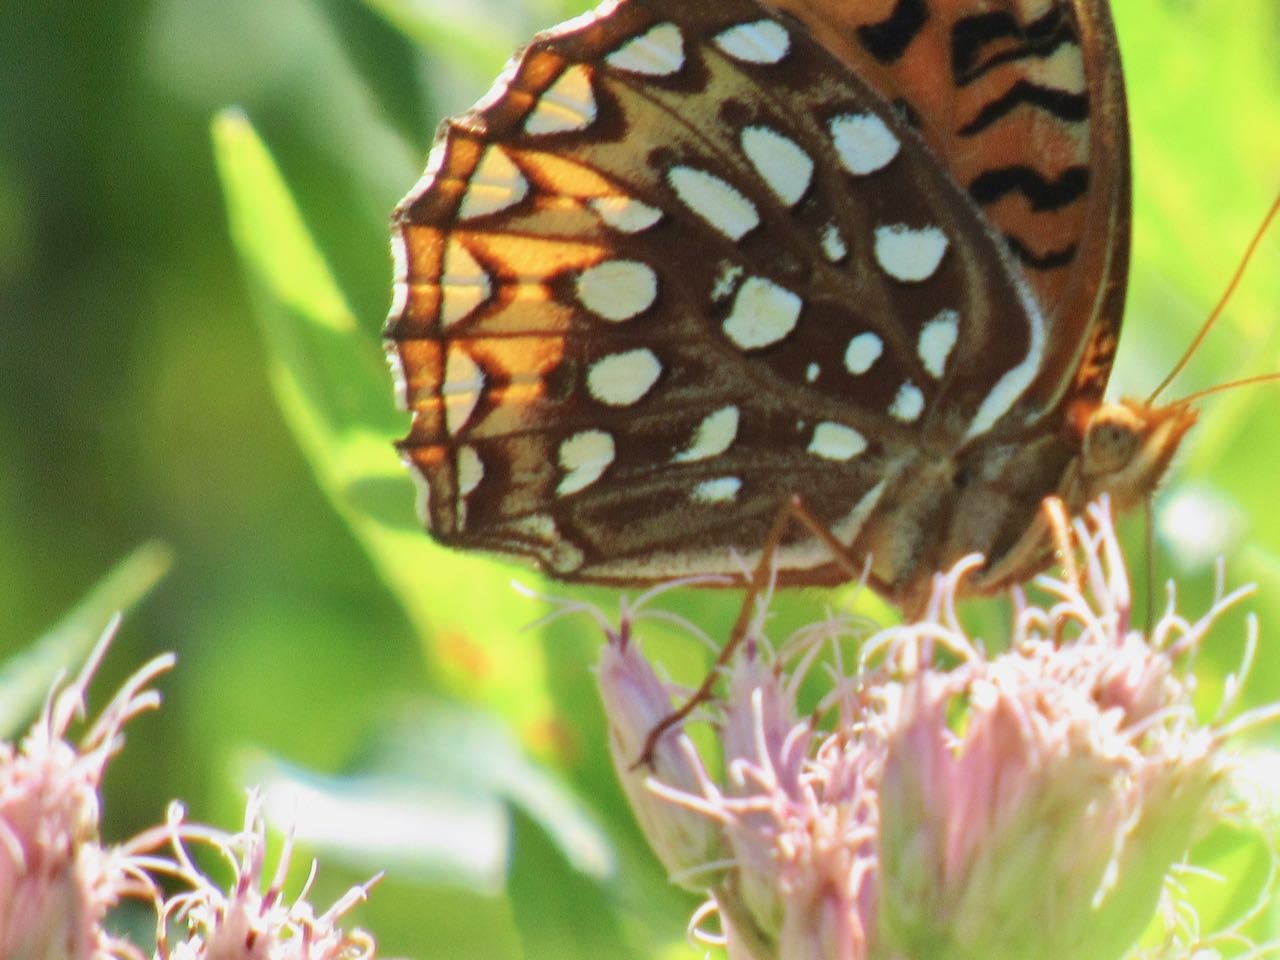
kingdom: Animalia
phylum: Arthropoda
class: Insecta
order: Lepidoptera
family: Nymphalidae
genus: Speyeria
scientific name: Speyeria aphrodite
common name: Aphrodite Fritillary
